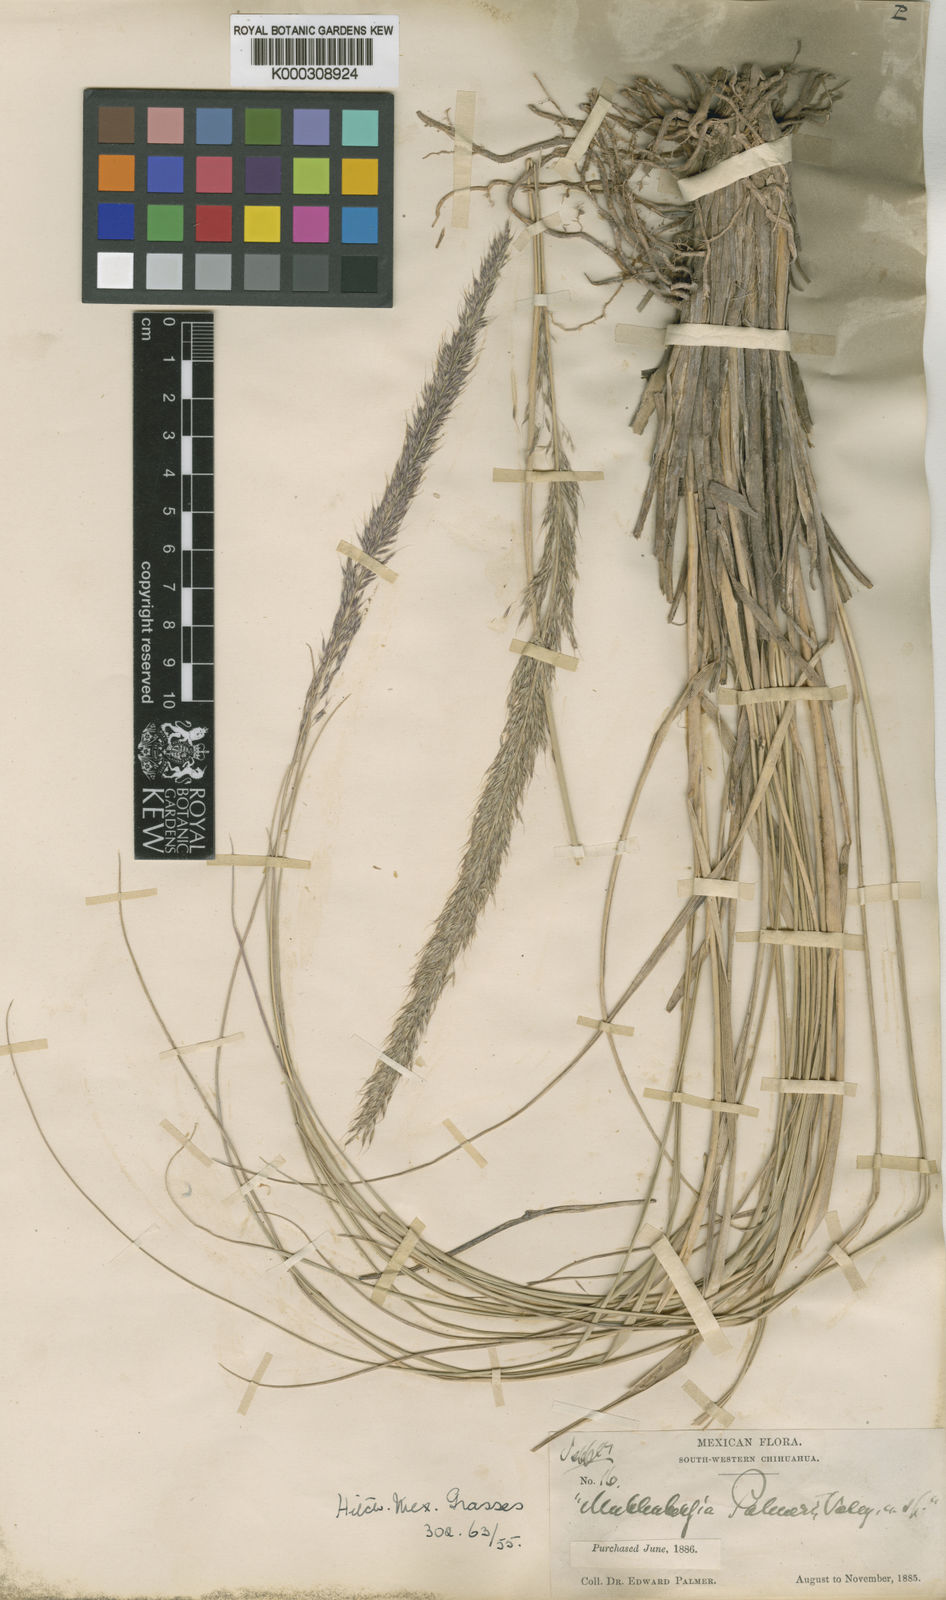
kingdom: Plantae
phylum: Tracheophyta
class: Liliopsida
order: Poales
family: Poaceae
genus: Muhlenbergia
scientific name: Muhlenbergia palmeri
